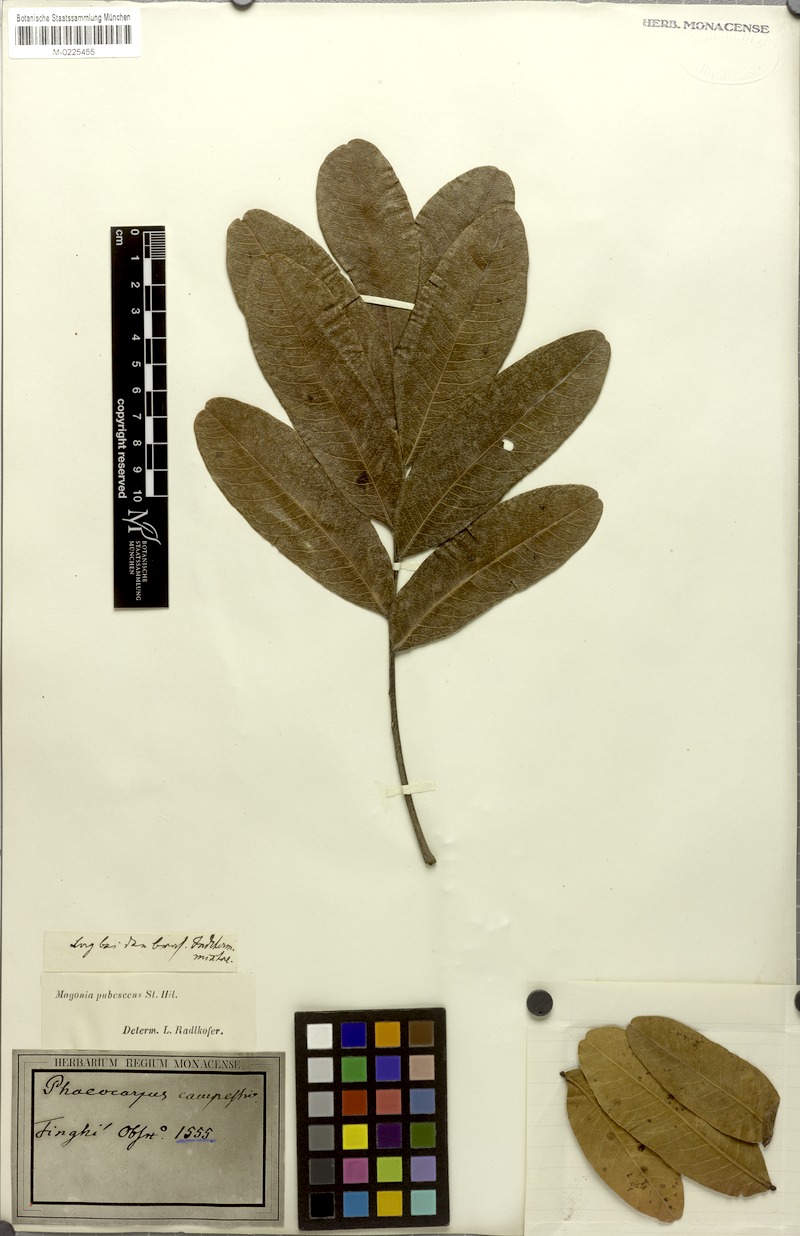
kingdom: Plantae
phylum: Tracheophyta
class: Magnoliopsida
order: Sapindales
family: Sapindaceae
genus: Magonia
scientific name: Magonia pubescens
